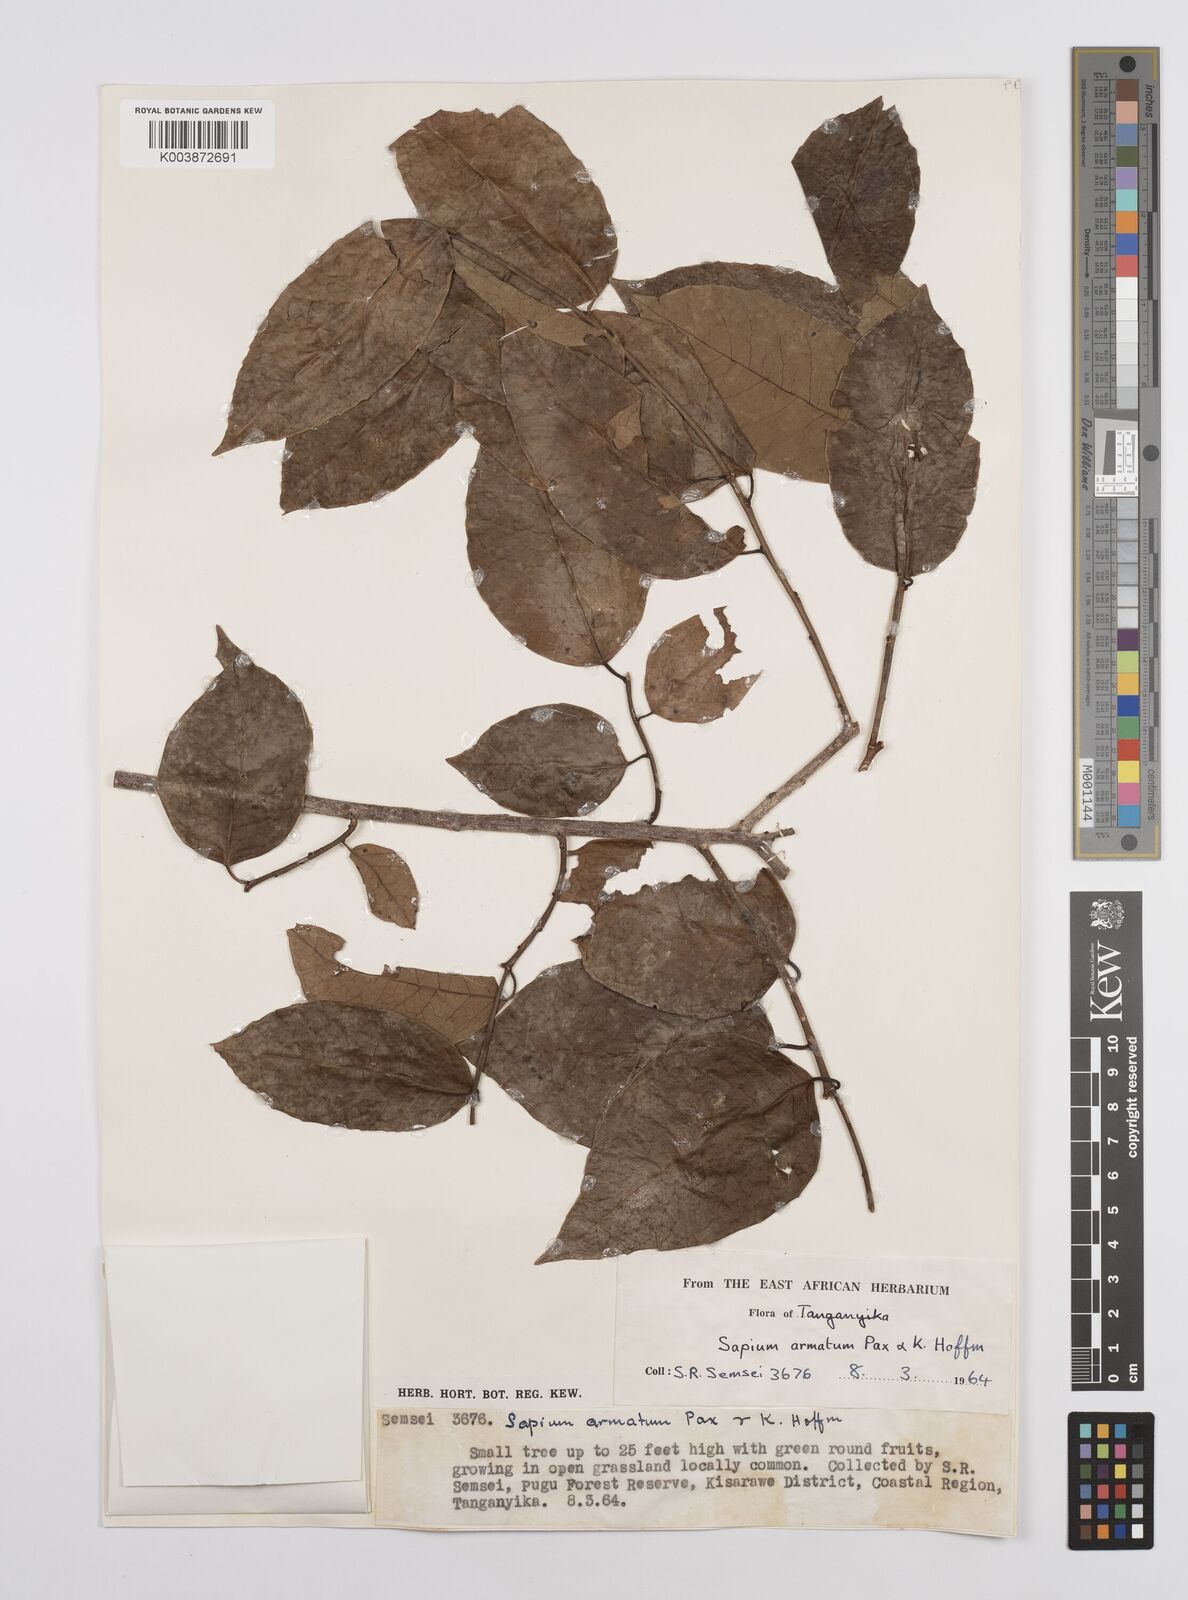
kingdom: Plantae
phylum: Tracheophyta
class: Magnoliopsida
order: Malpighiales
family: Euphorbiaceae
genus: Sclerocroton
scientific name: Sclerocroton integerrimus
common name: Duiker berry
